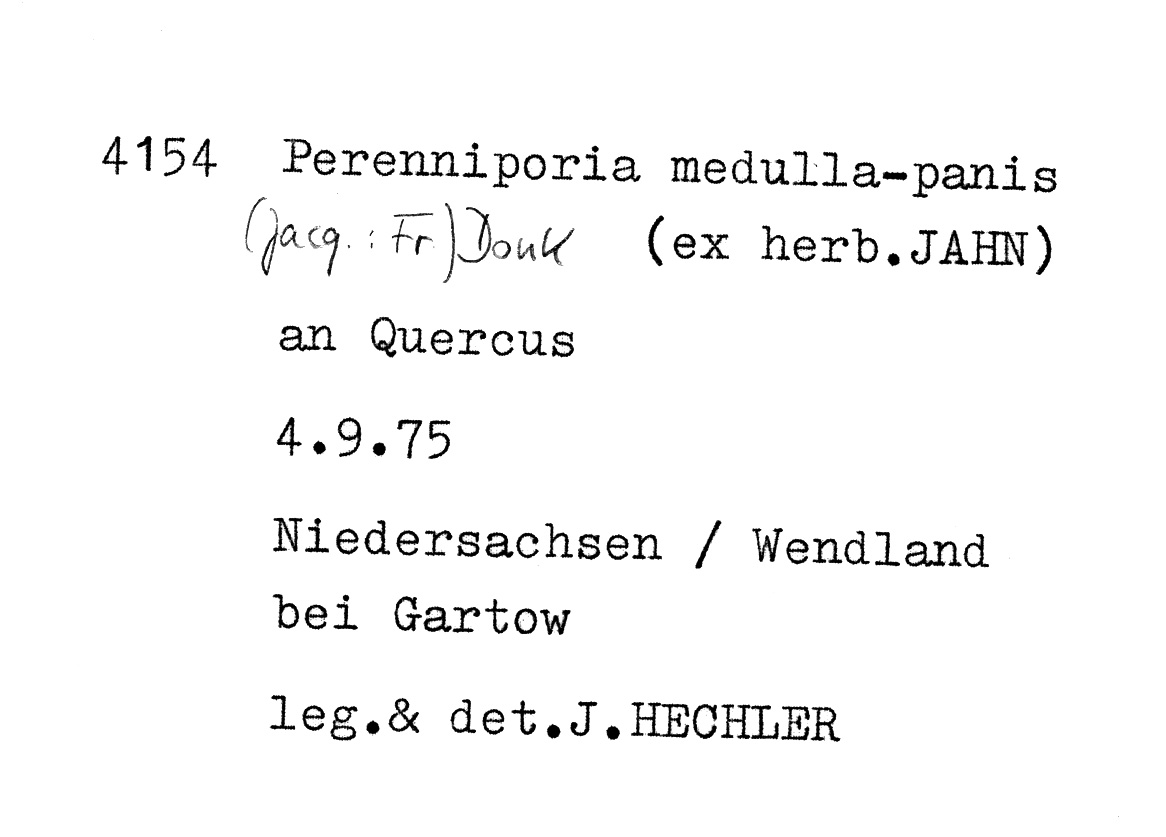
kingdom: Fungi
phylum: Basidiomycota
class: Agaricomycetes
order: Polyporales
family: Polyporaceae
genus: Perenniporia
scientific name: Perenniporia medulla-panis
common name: Pancake crust
